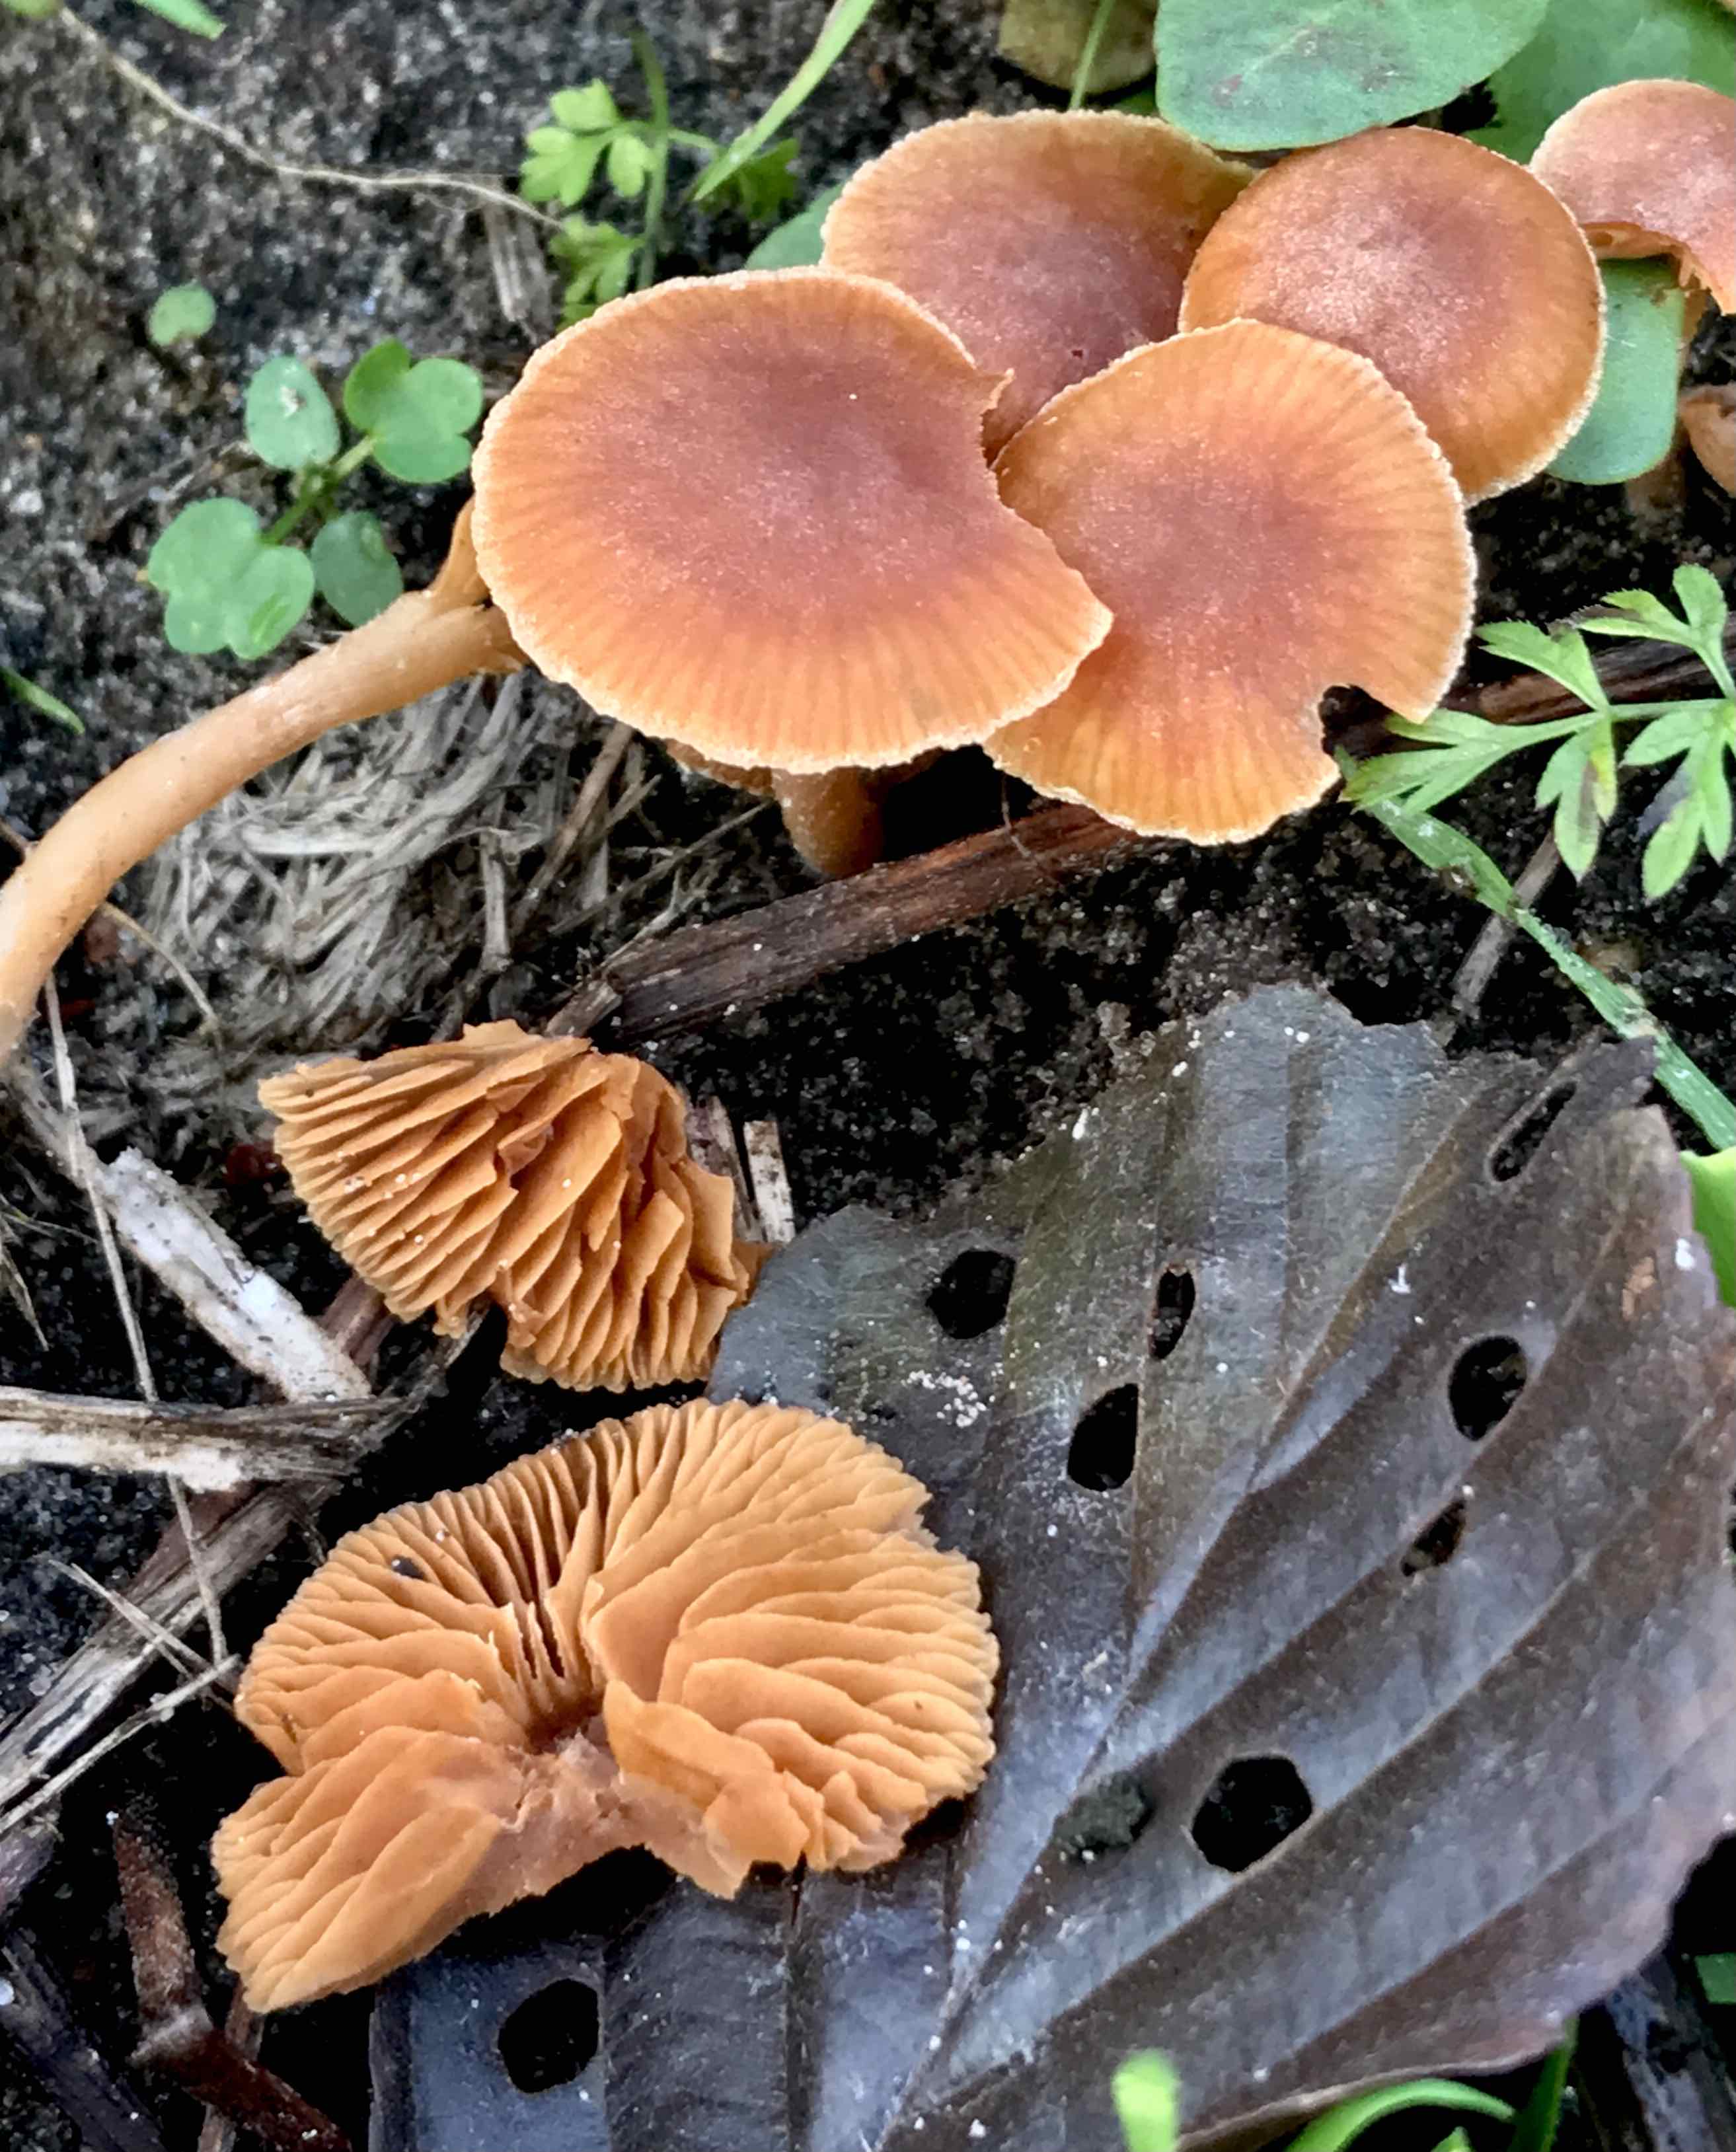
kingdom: Fungi
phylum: Basidiomycota
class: Agaricomycetes
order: Agaricales
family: Tubariaceae
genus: Tubaria
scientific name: Tubaria furfuracea
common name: kliddet fnughat
